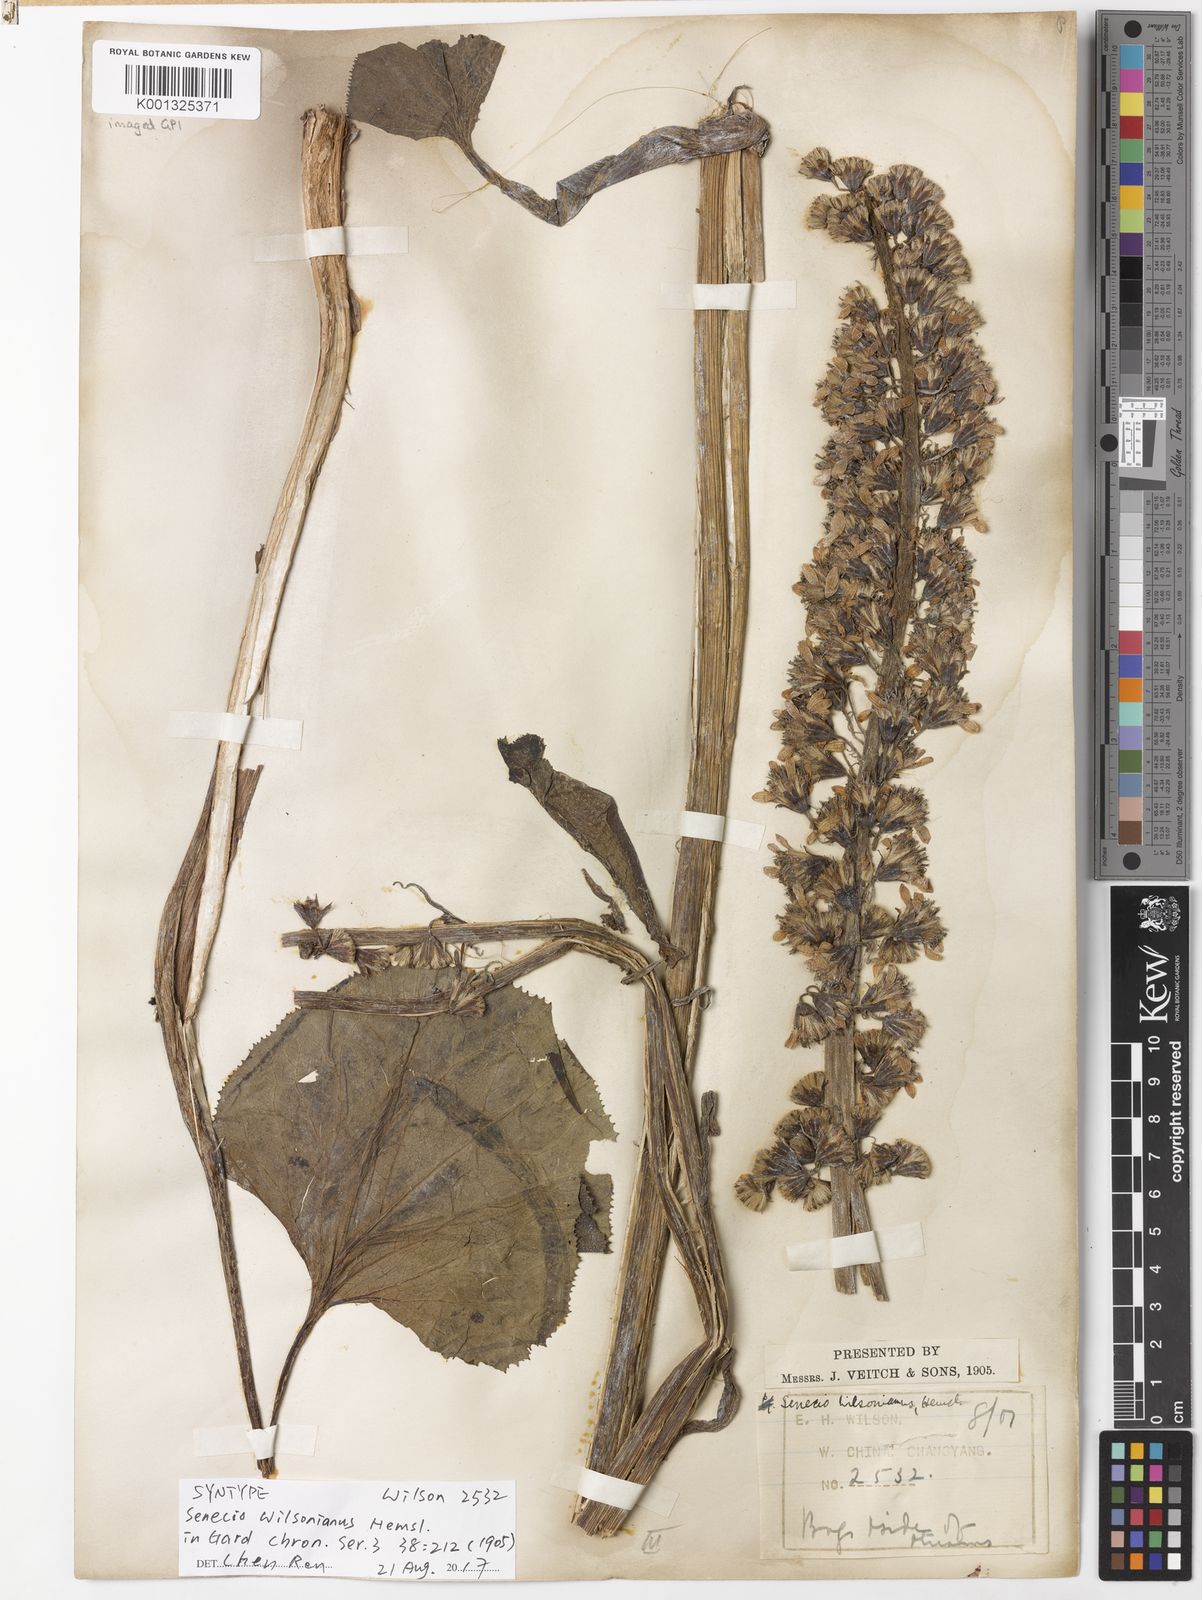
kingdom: Plantae
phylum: Tracheophyta
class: Magnoliopsida
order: Asterales
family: Asteraceae
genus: Ligularia
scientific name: Ligularia wilsoniana
